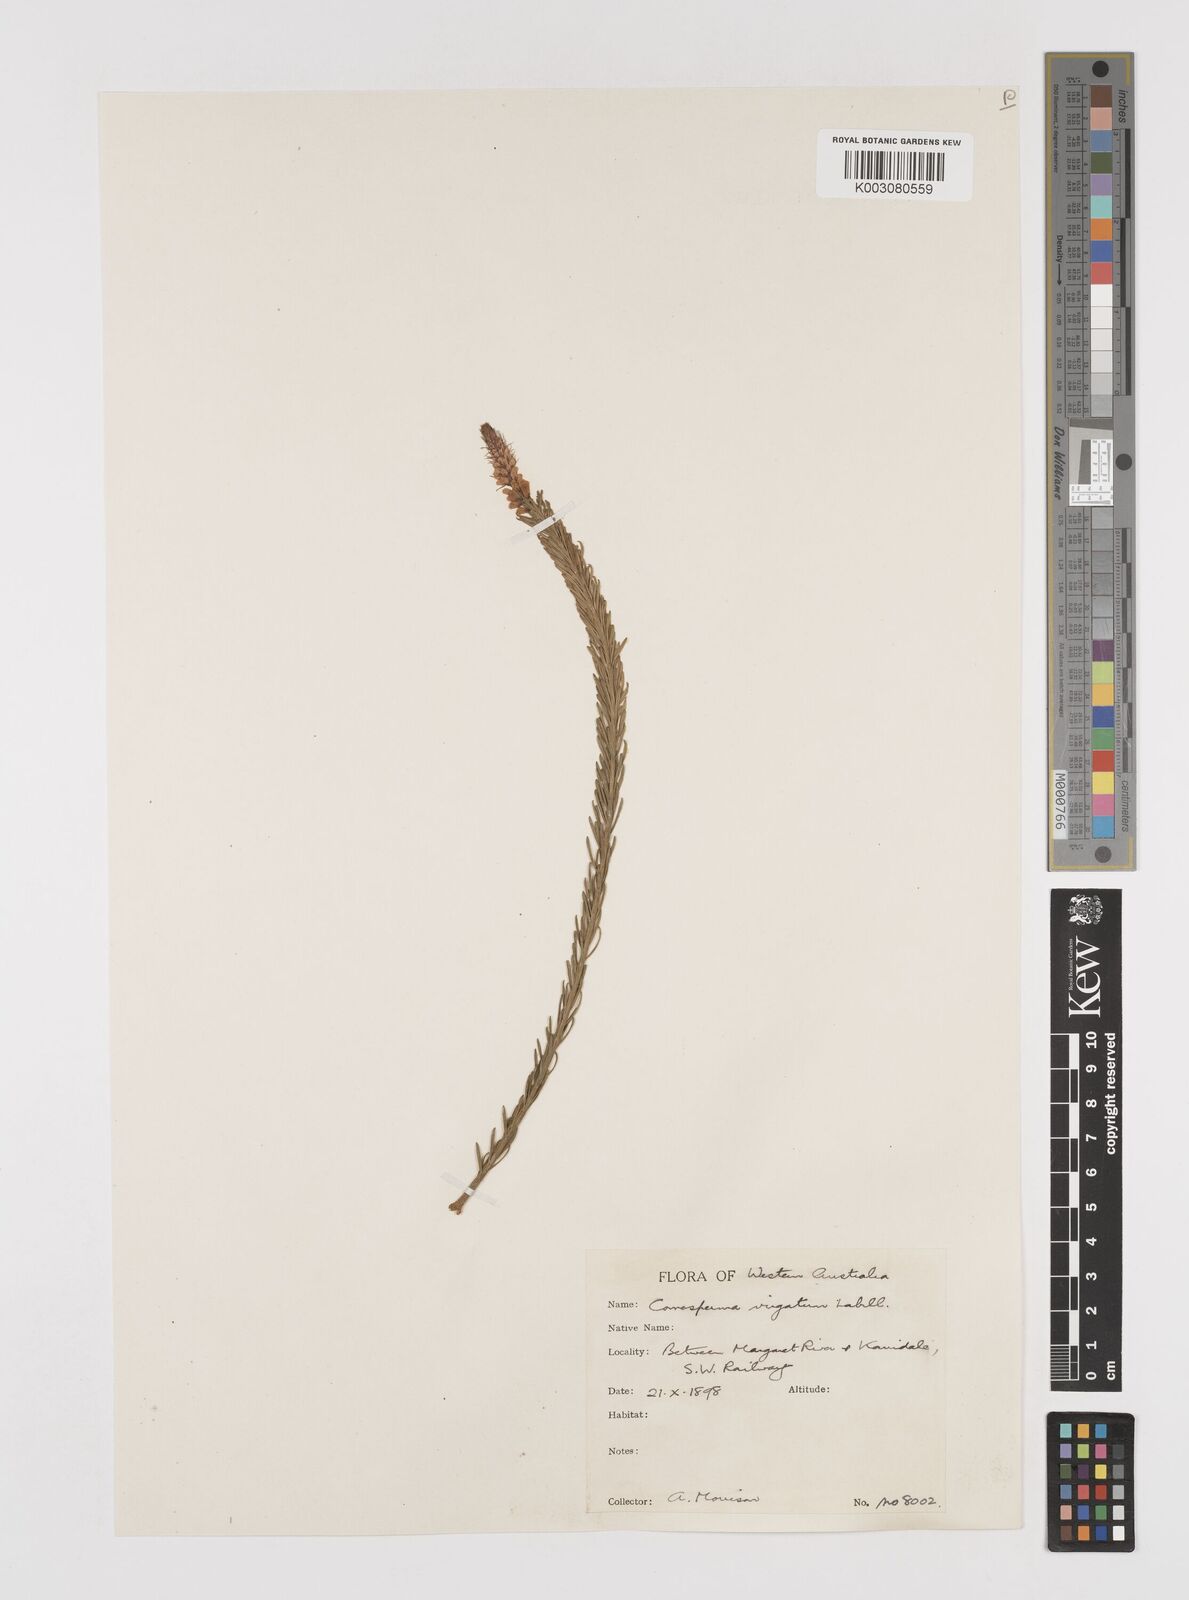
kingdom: Plantae
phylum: Tracheophyta
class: Magnoliopsida
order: Fabales
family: Polygalaceae
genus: Comesperma
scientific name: Comesperma virgatum
